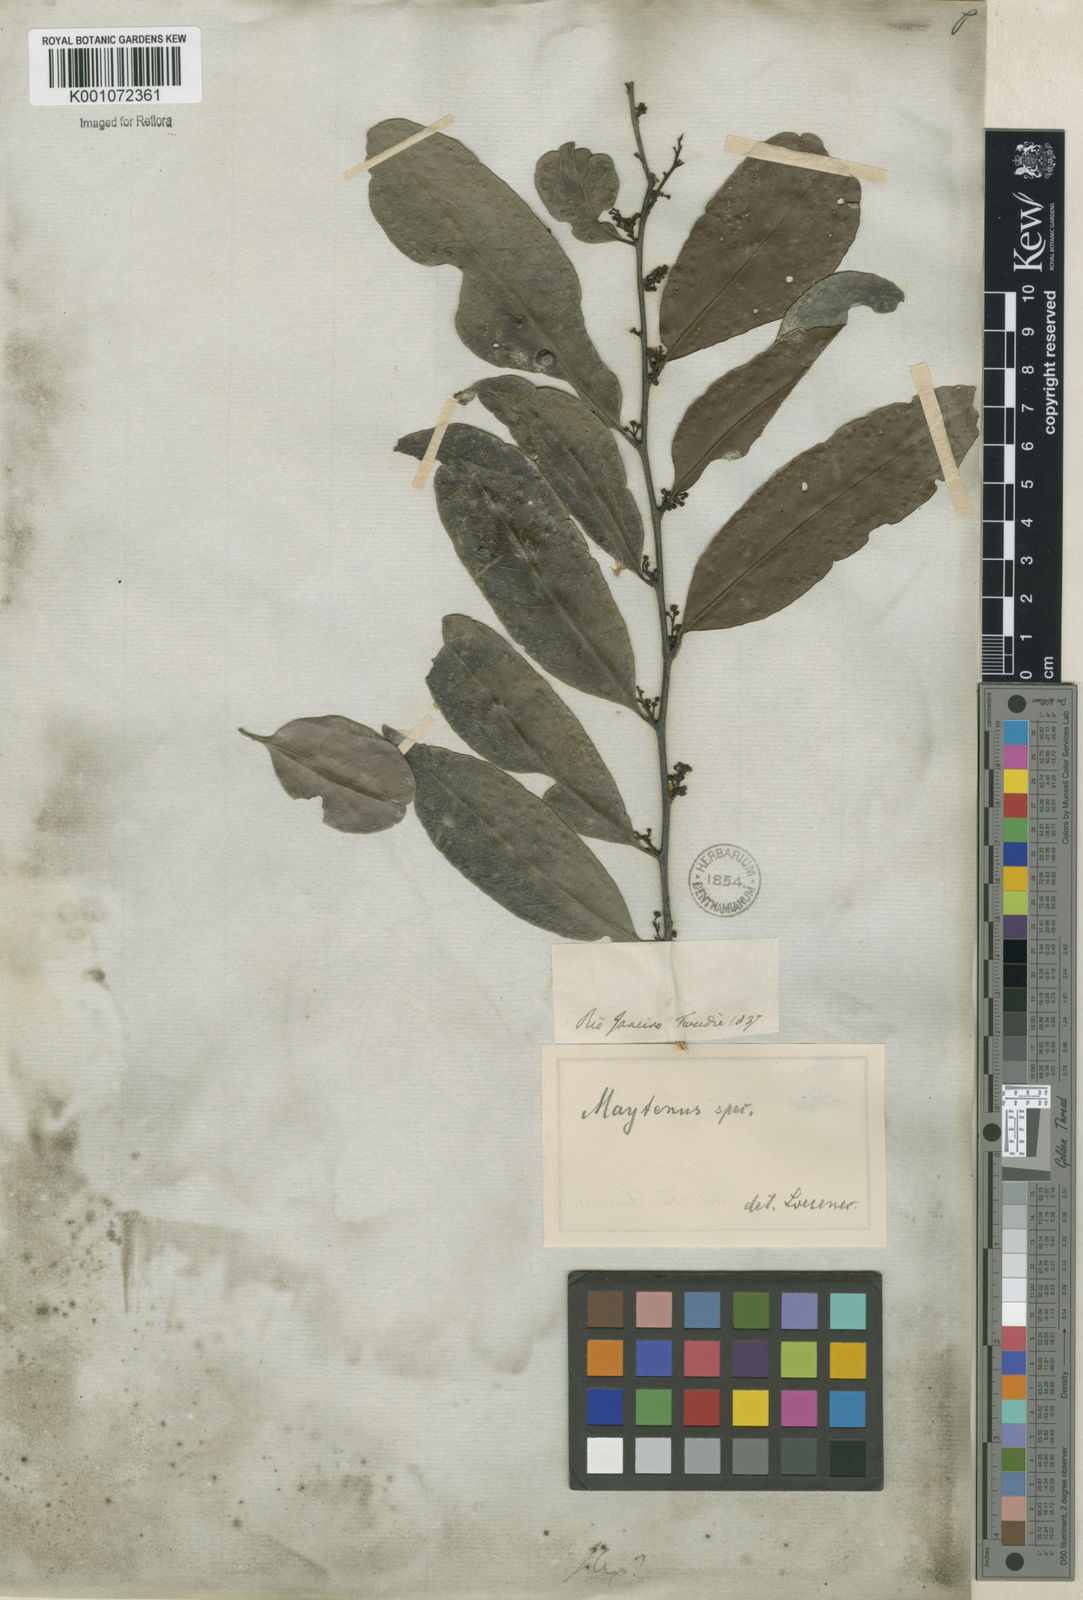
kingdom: Plantae
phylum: Tracheophyta
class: Magnoliopsida
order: Celastrales
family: Celastraceae
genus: Maytenus
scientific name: Maytenus
